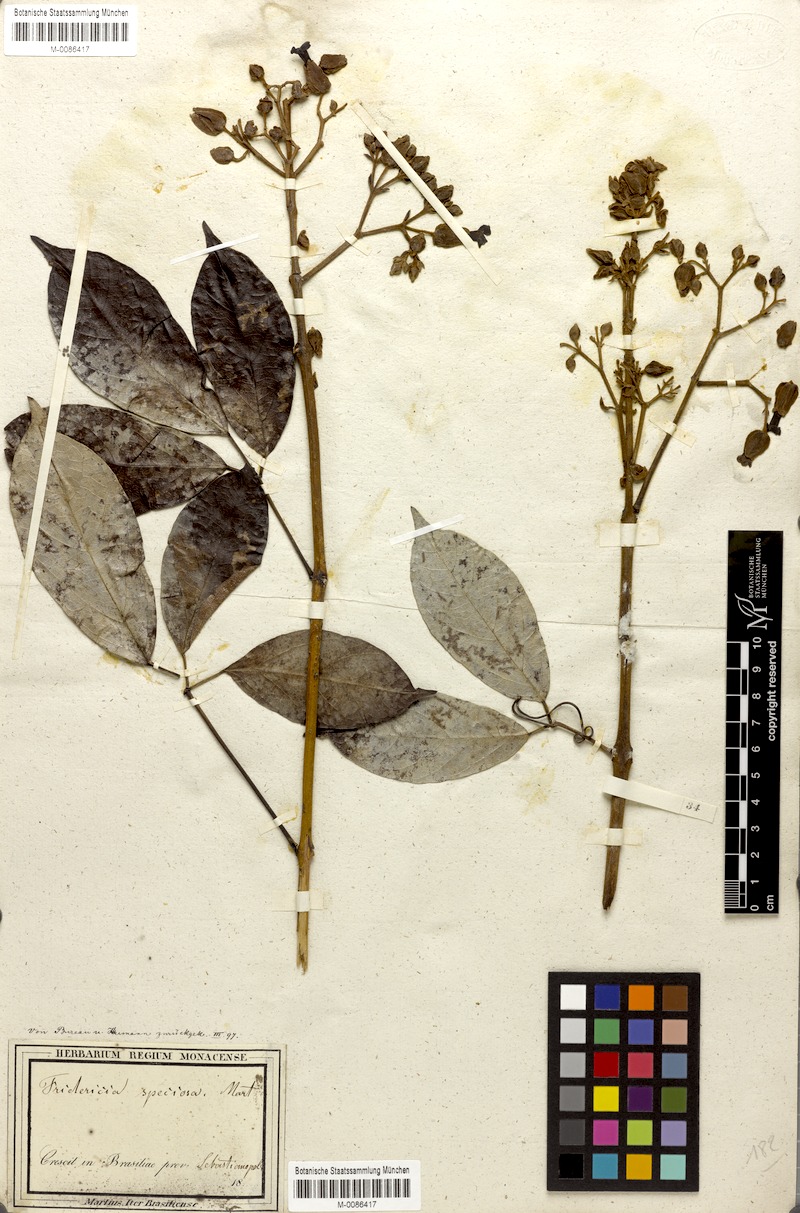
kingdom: Plantae
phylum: Tracheophyta
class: Magnoliopsida
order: Lamiales
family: Bignoniaceae
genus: Fridericia
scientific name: Fridericia speciosa
